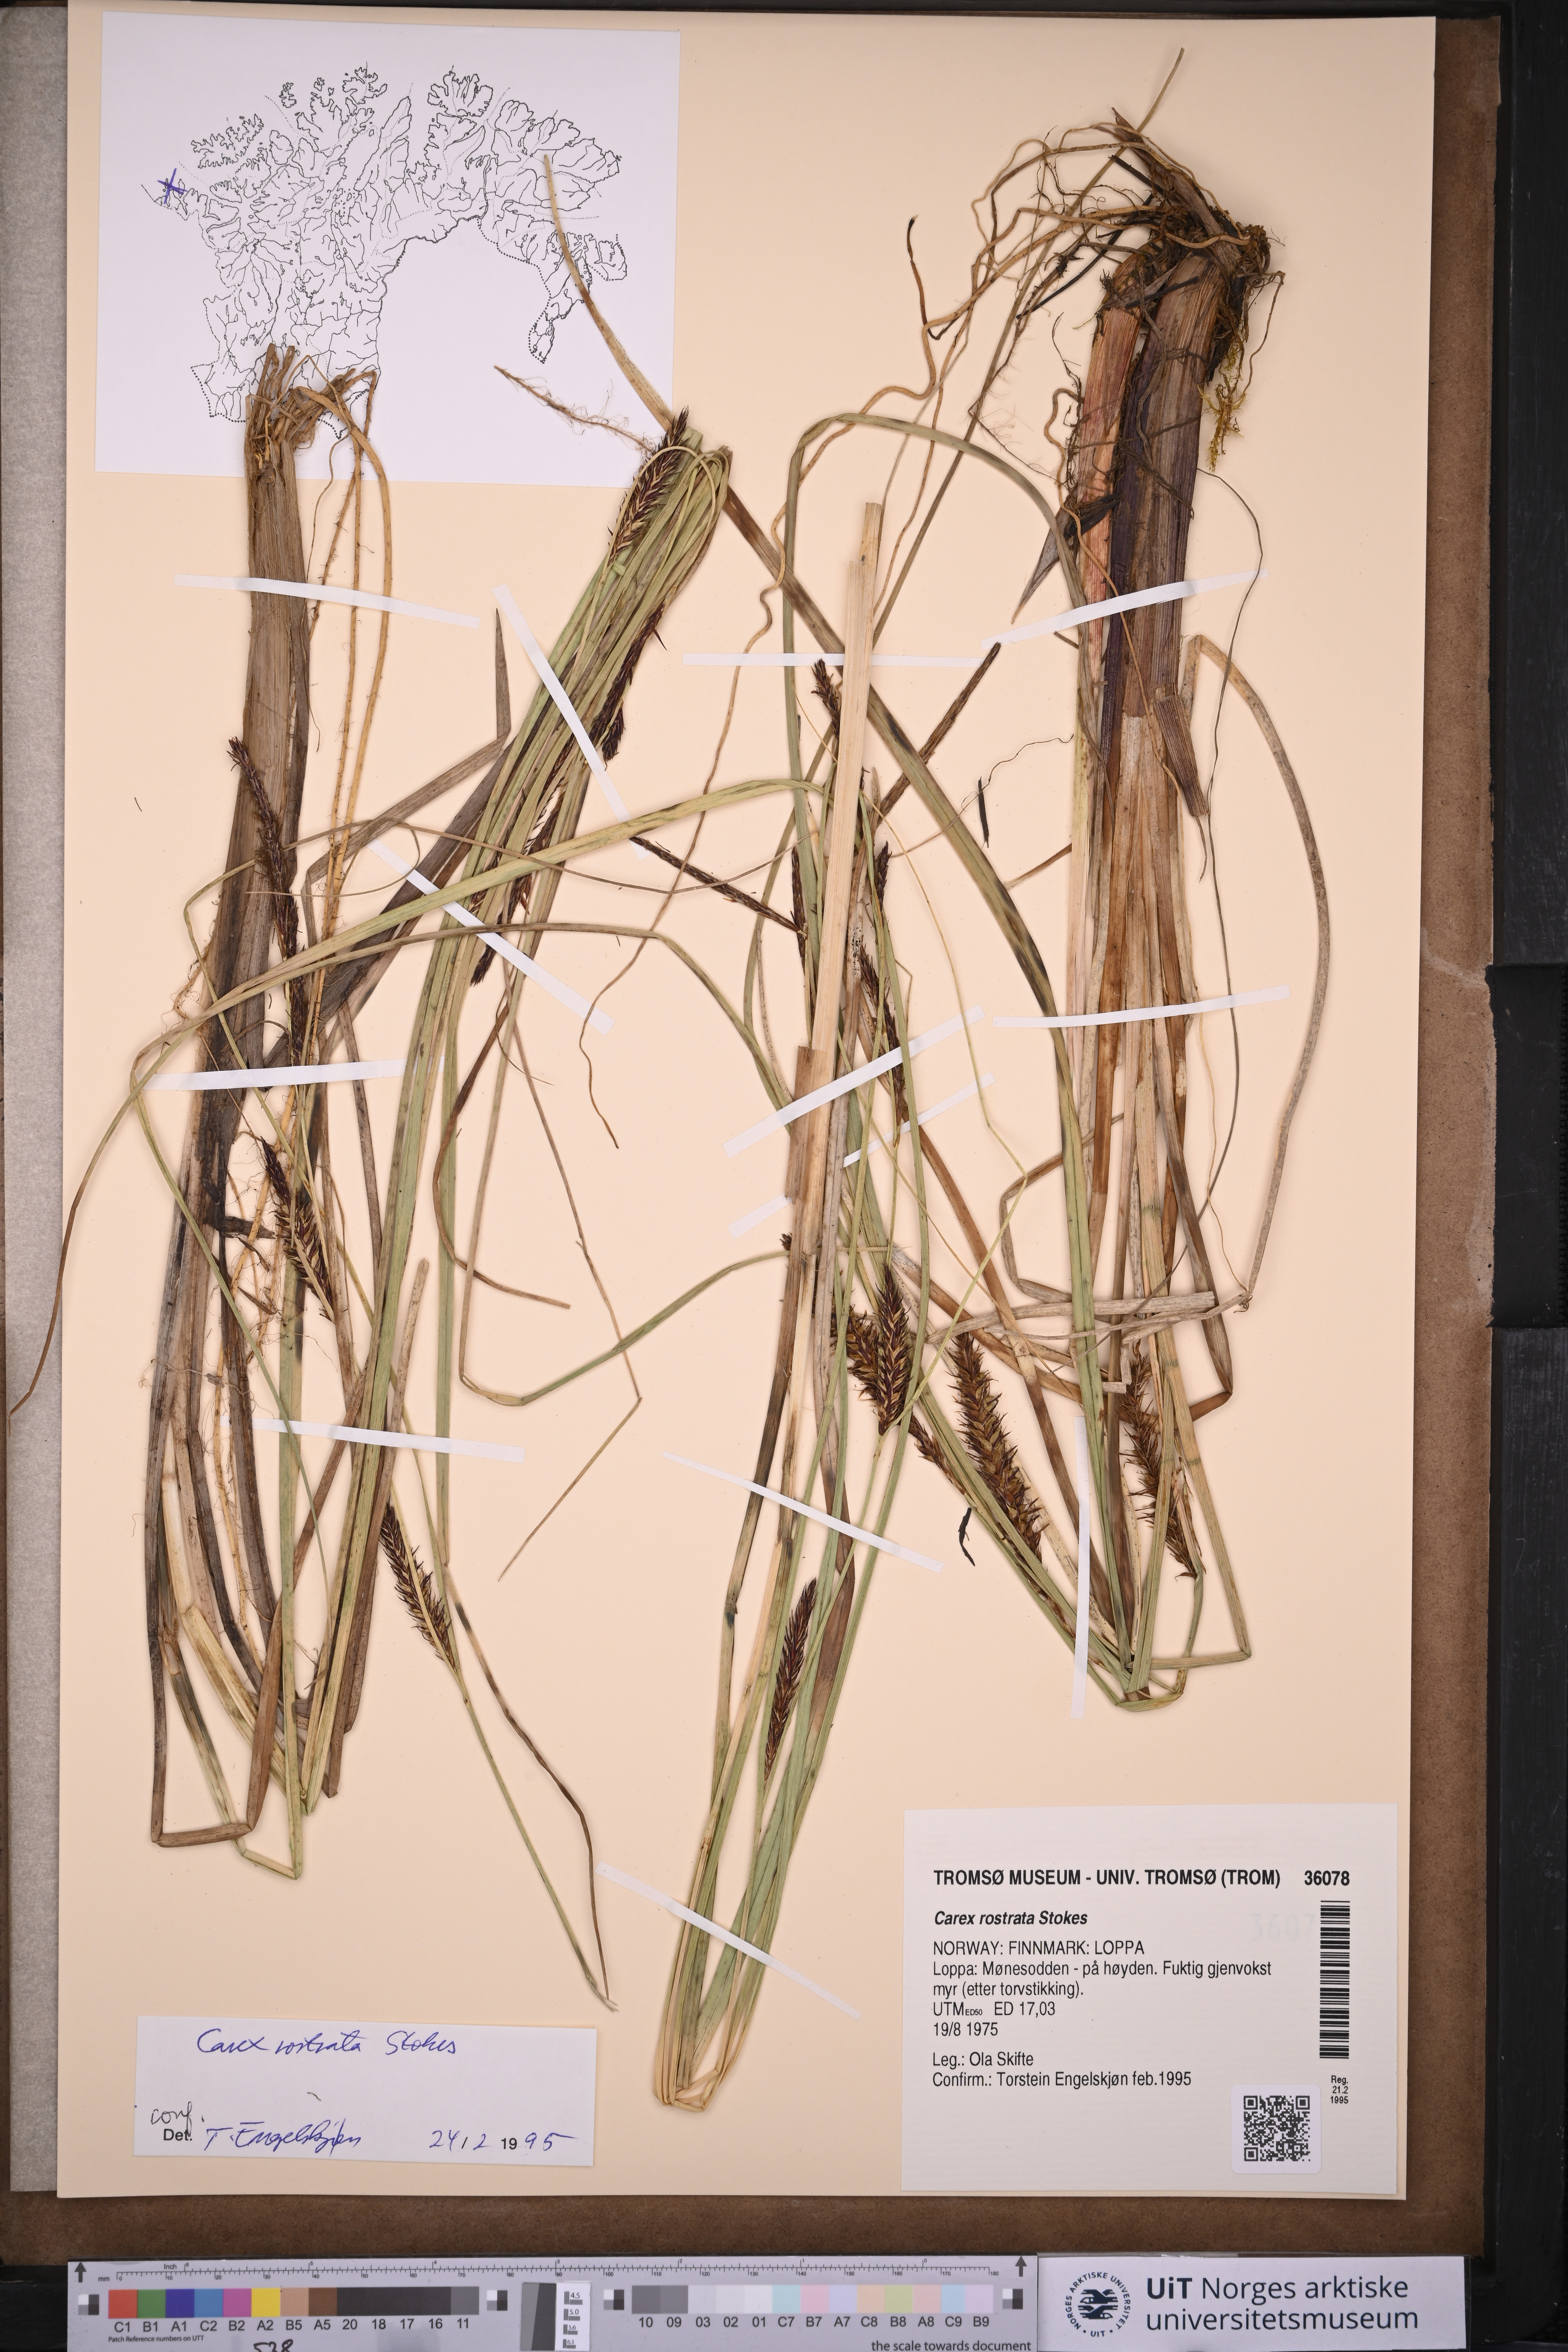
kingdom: Plantae
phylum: Tracheophyta
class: Liliopsida
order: Poales
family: Cyperaceae
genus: Carex
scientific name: Carex rostrata
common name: Bottle sedge
